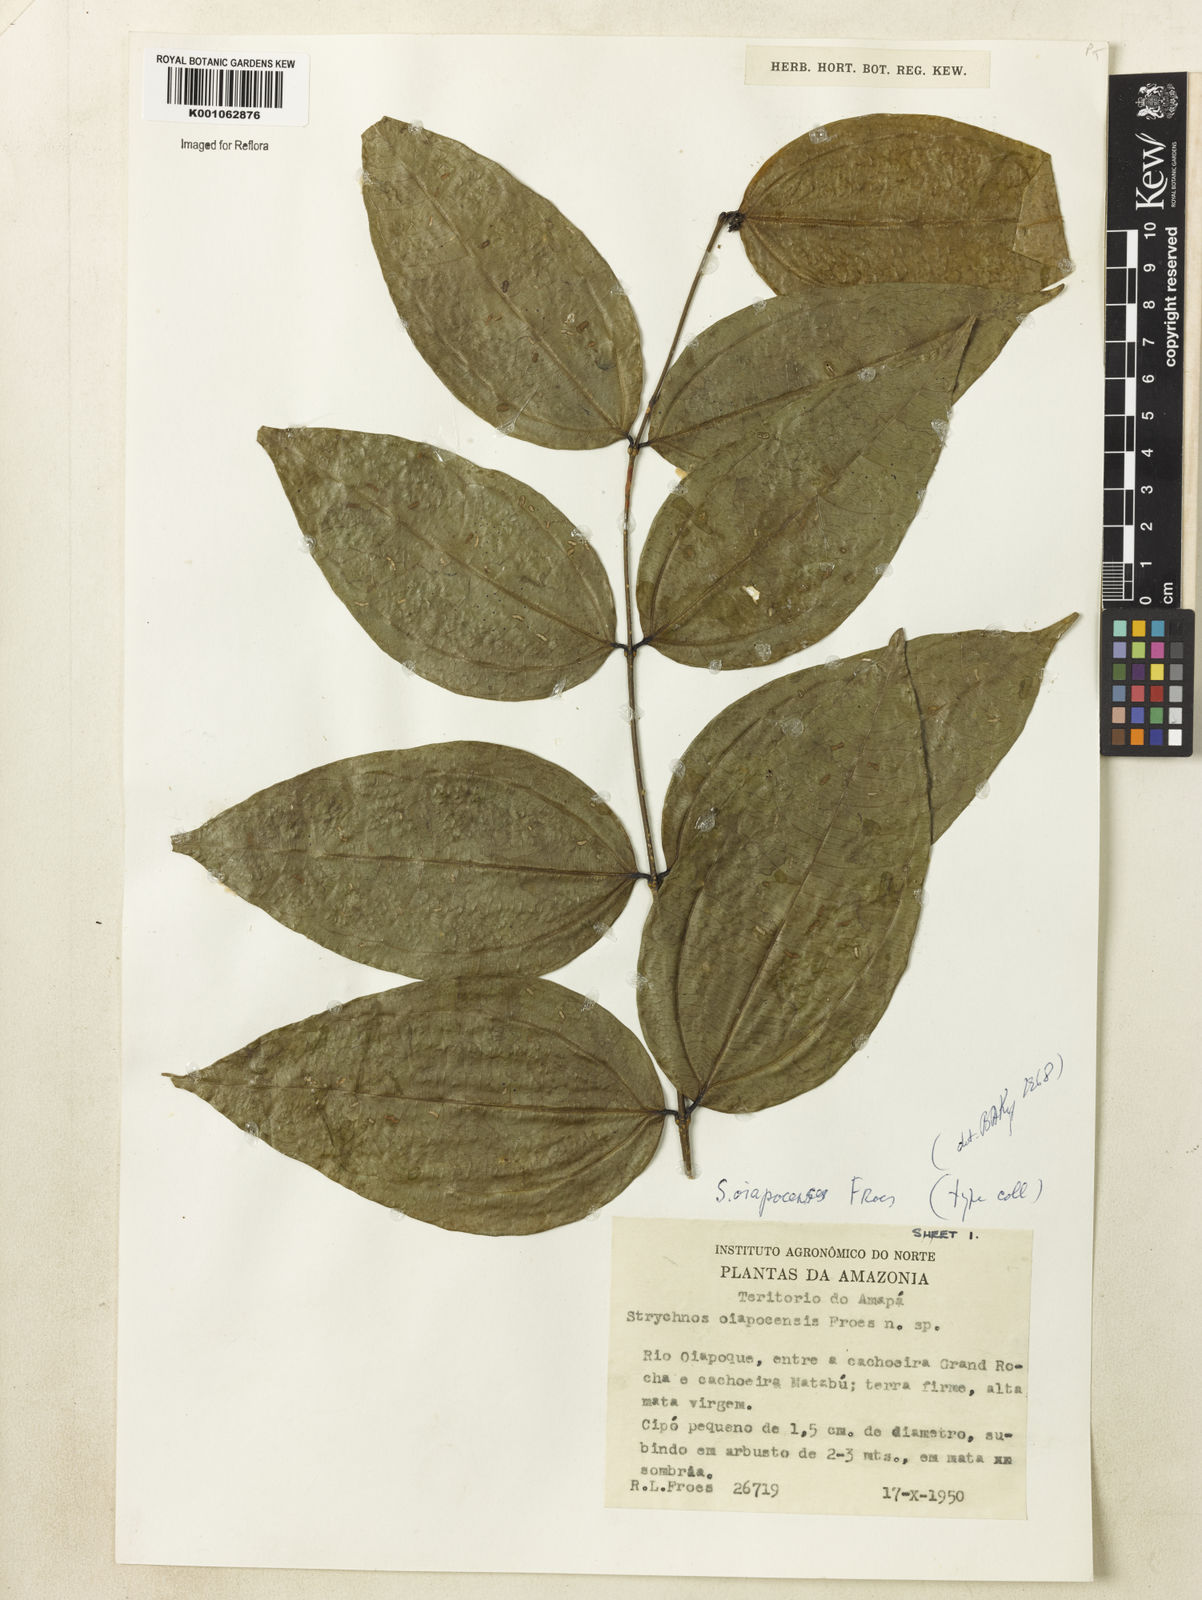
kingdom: Plantae
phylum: Tracheophyta
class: Magnoliopsida
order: Gentianales
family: Loganiaceae
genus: Strychnos
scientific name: Strychnos
